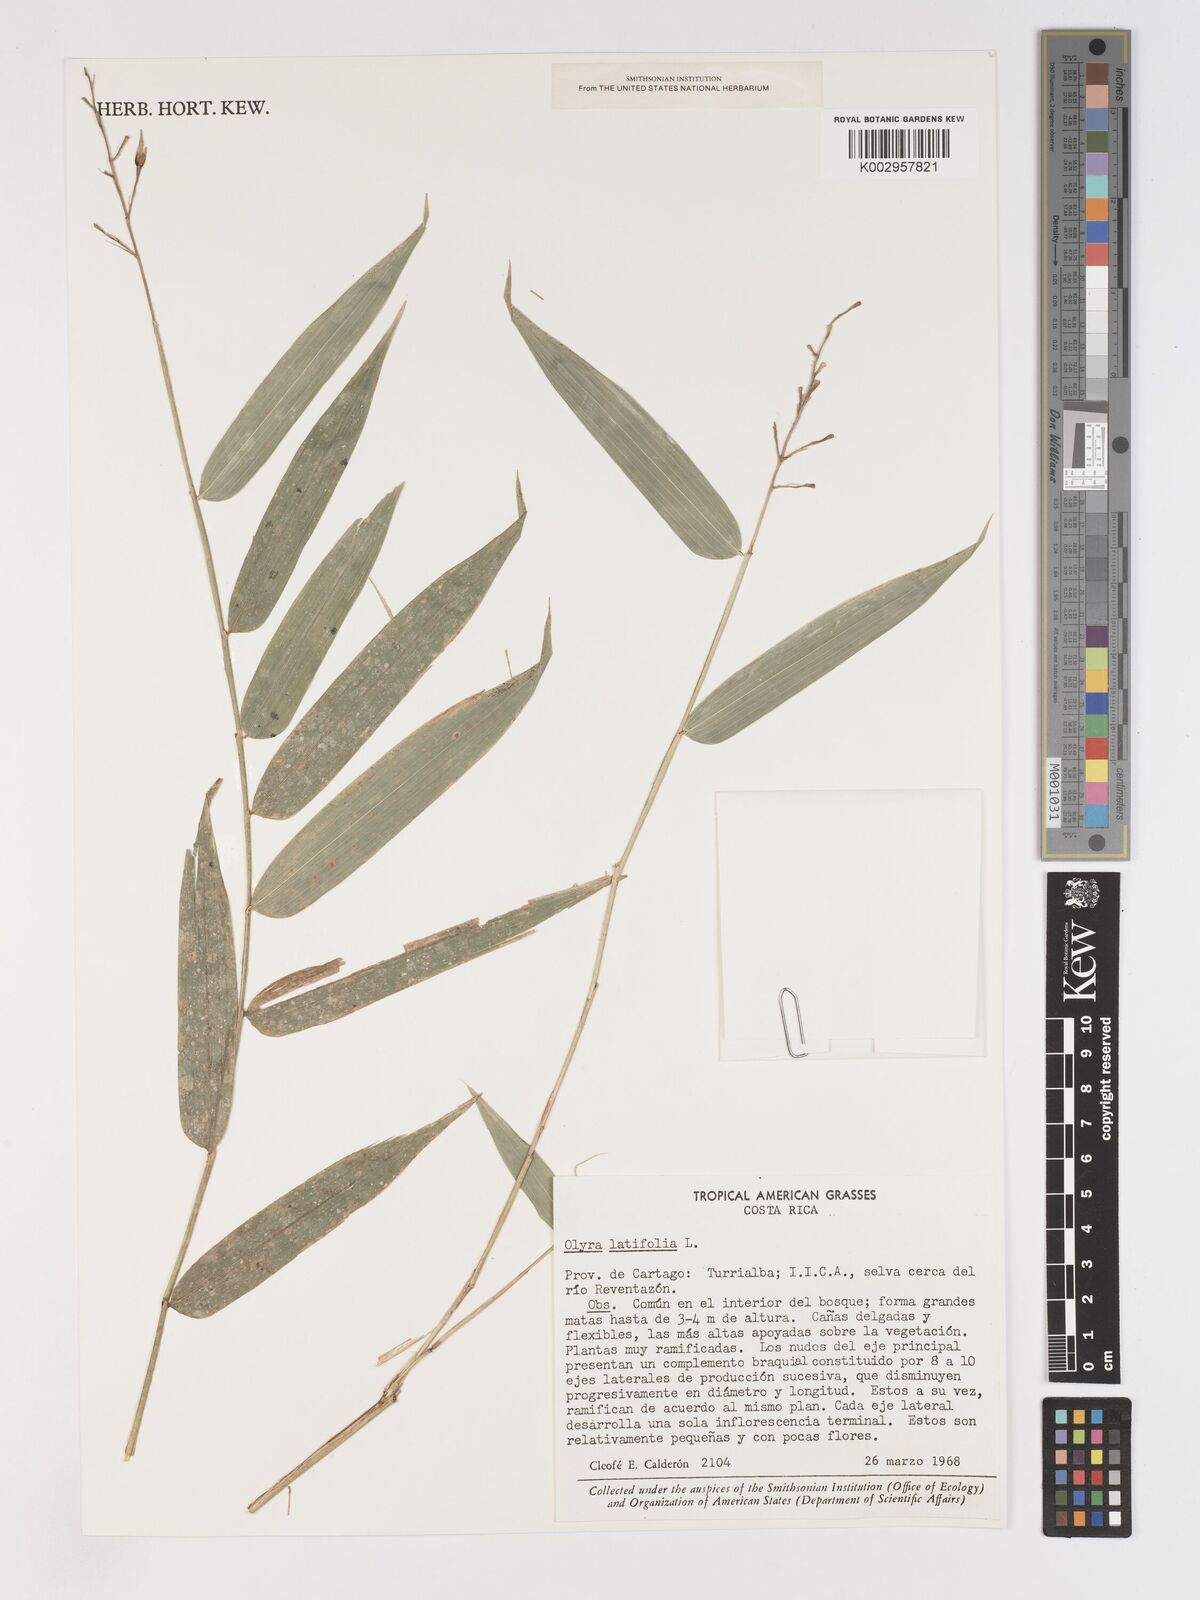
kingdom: Plantae
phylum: Tracheophyta
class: Liliopsida
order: Poales
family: Poaceae
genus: Olyra
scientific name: Olyra latifolia
